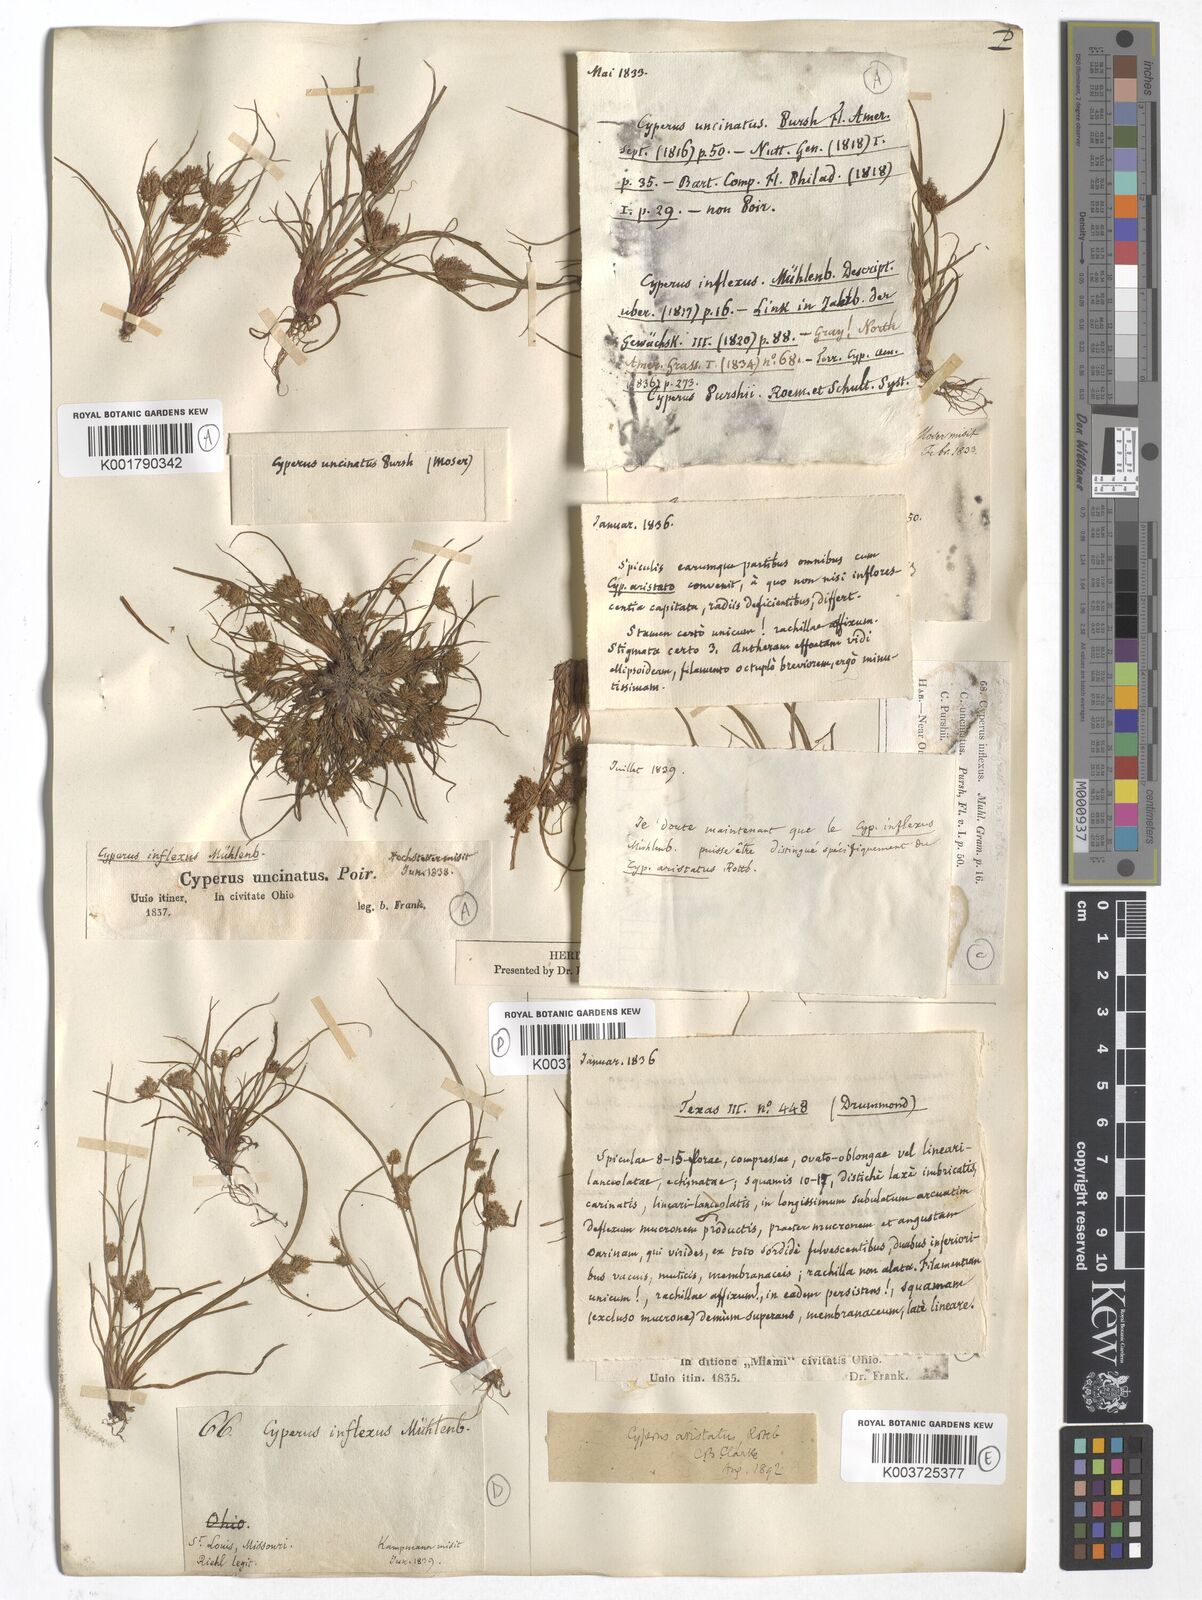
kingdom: Plantae
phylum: Tracheophyta
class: Liliopsida
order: Poales
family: Cyperaceae
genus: Cyperus
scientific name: Cyperus squarrosus
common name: Awned cyperus
